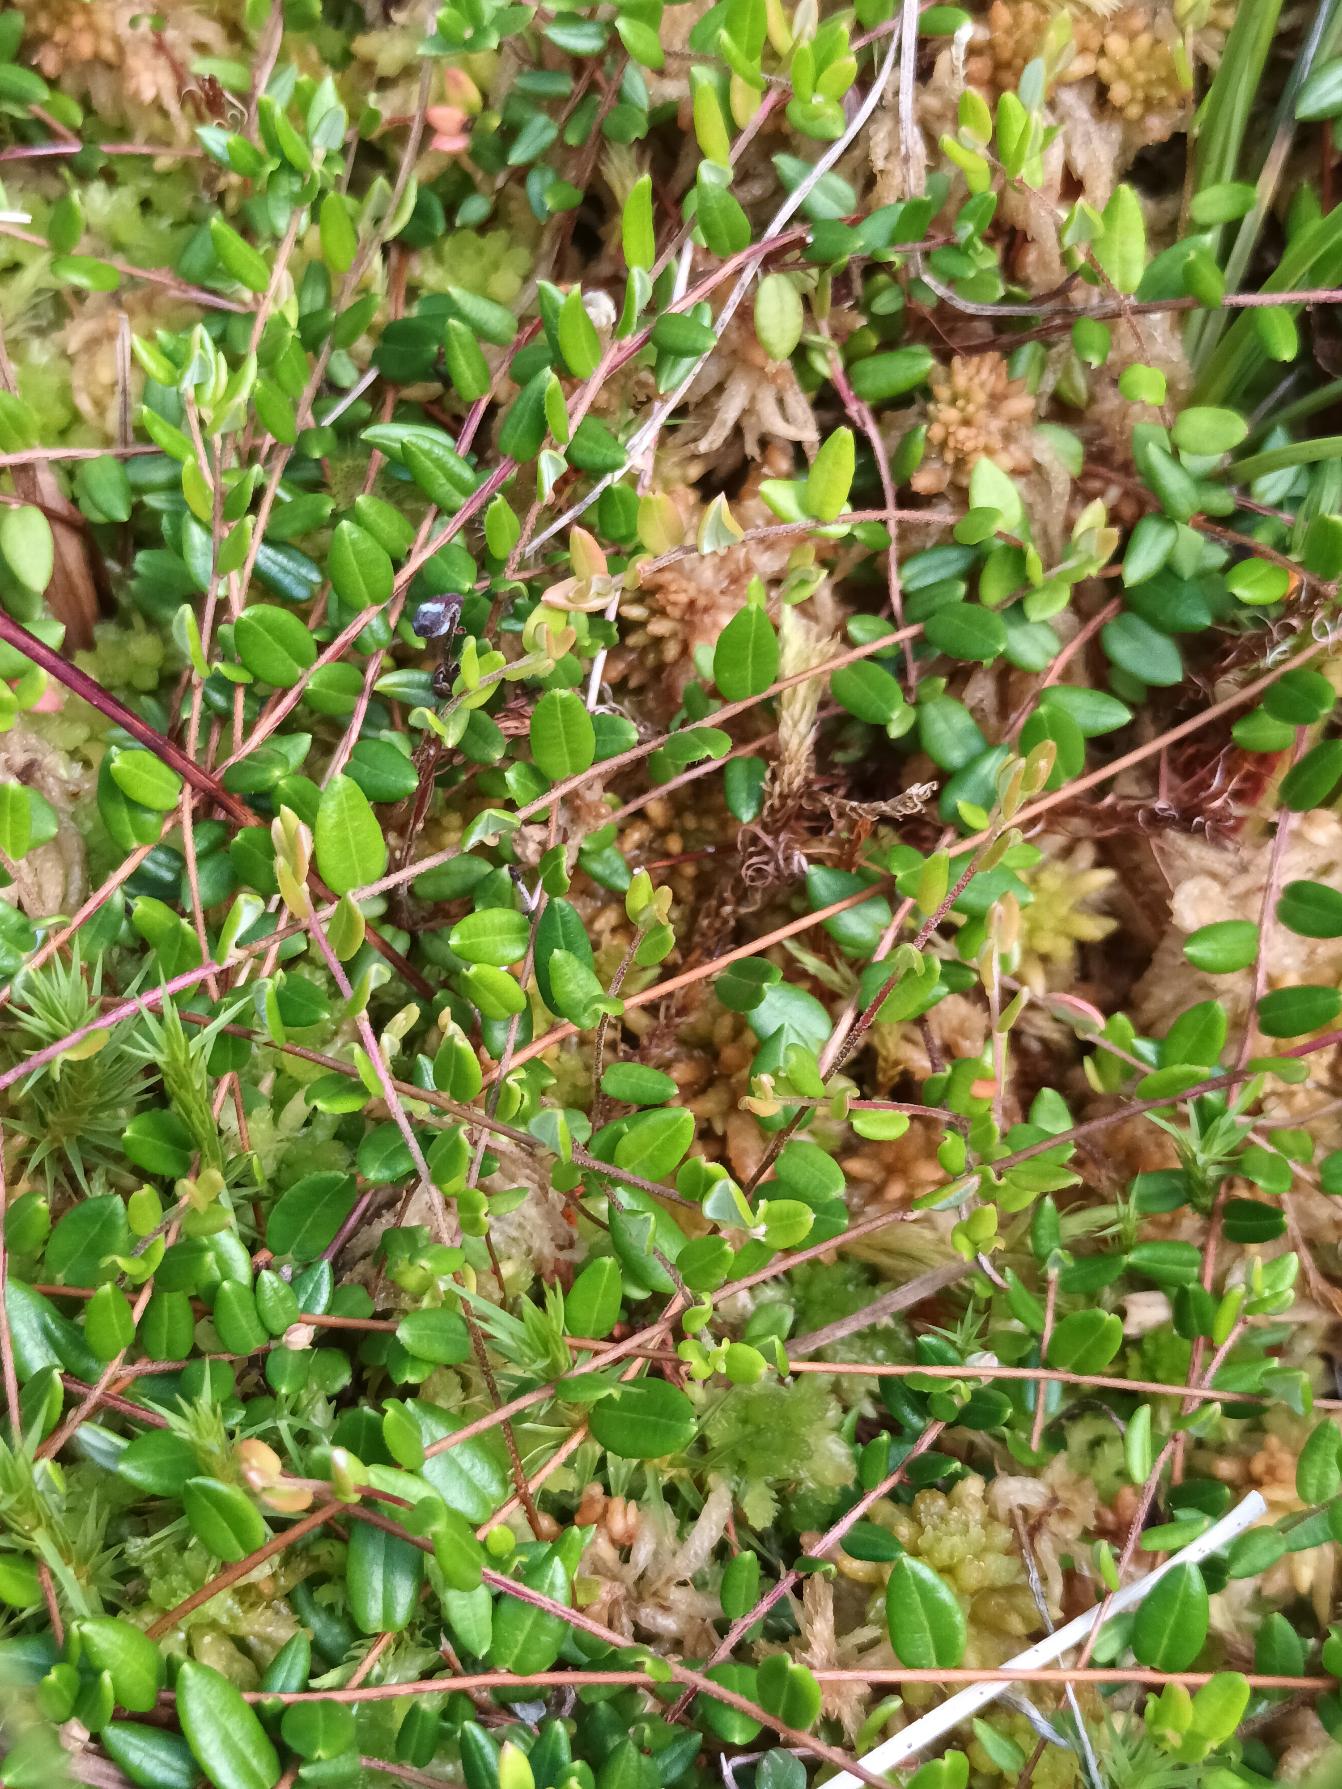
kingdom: Plantae
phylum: Tracheophyta
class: Magnoliopsida
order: Ericales
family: Ericaceae
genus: Vaccinium
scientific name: Vaccinium oxycoccos
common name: Tranebær
